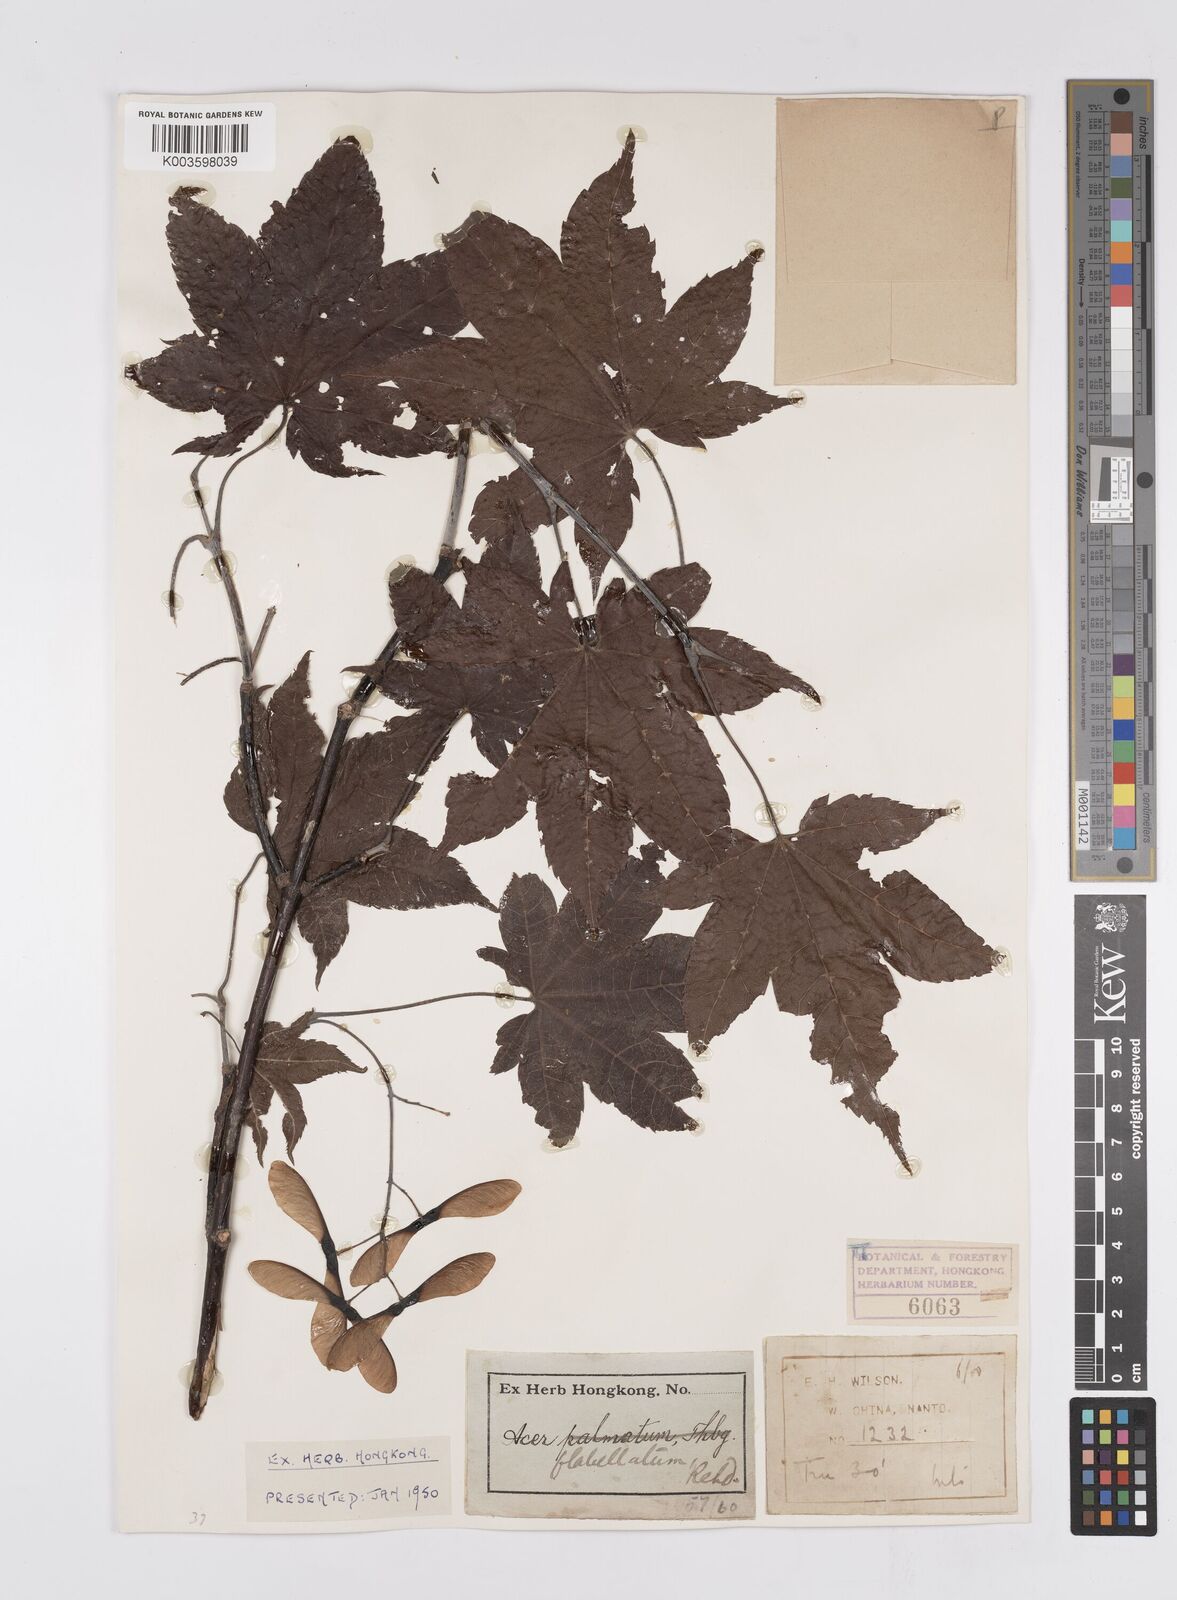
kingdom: Plantae
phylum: Tracheophyta
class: Magnoliopsida
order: Sapindales
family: Sapindaceae
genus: Acer
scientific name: Acer
